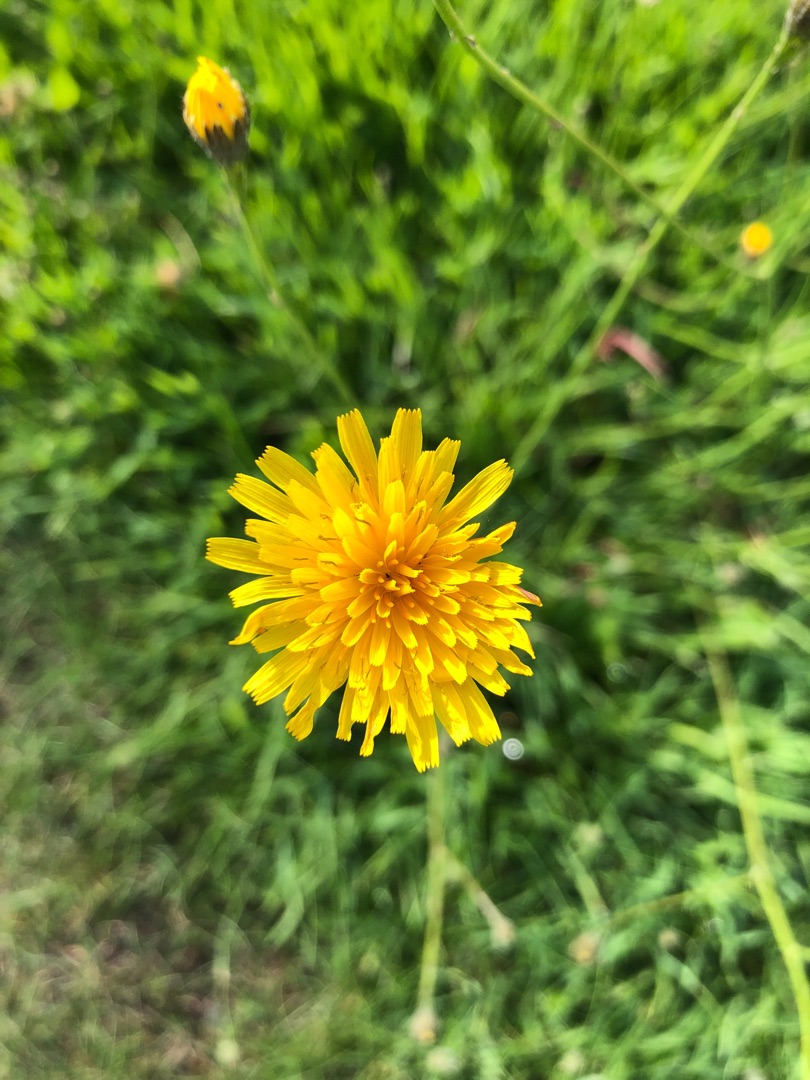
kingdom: Plantae
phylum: Tracheophyta
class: Magnoliopsida
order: Asterales
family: Asteraceae
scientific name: Asteraceae
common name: Kurvblomstfamilien
